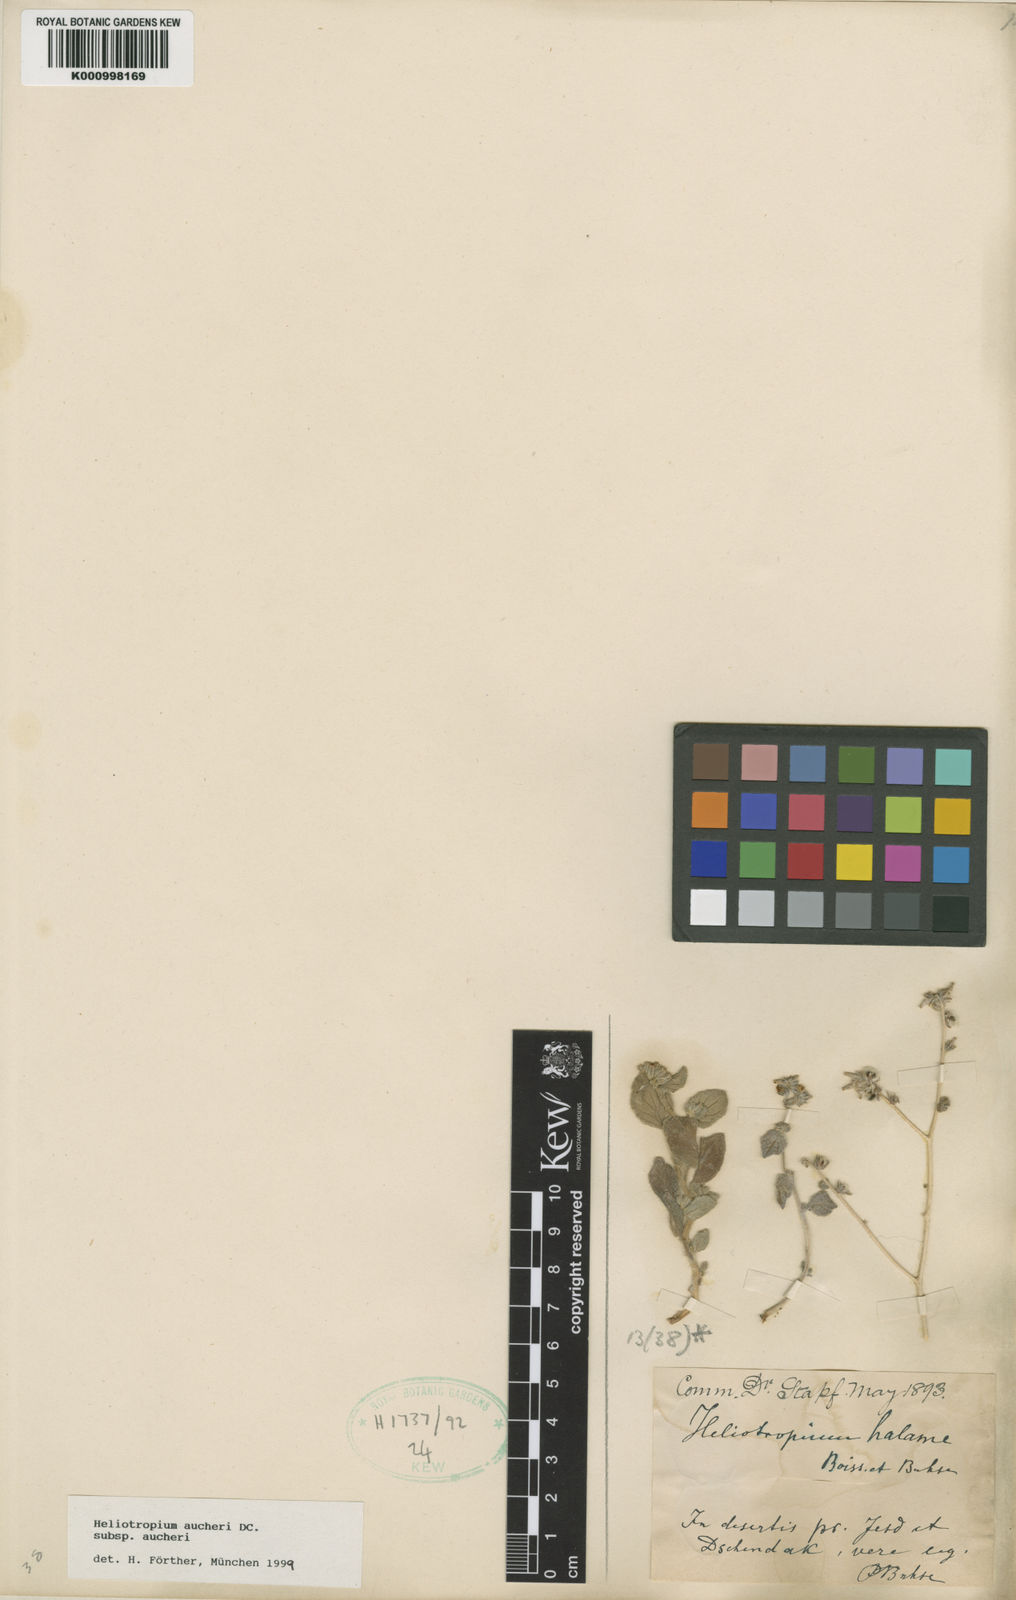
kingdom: Plantae
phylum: Tracheophyta
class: Magnoliopsida
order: Boraginales
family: Heliotropiaceae
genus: Heliotropium
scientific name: Heliotropium halame
